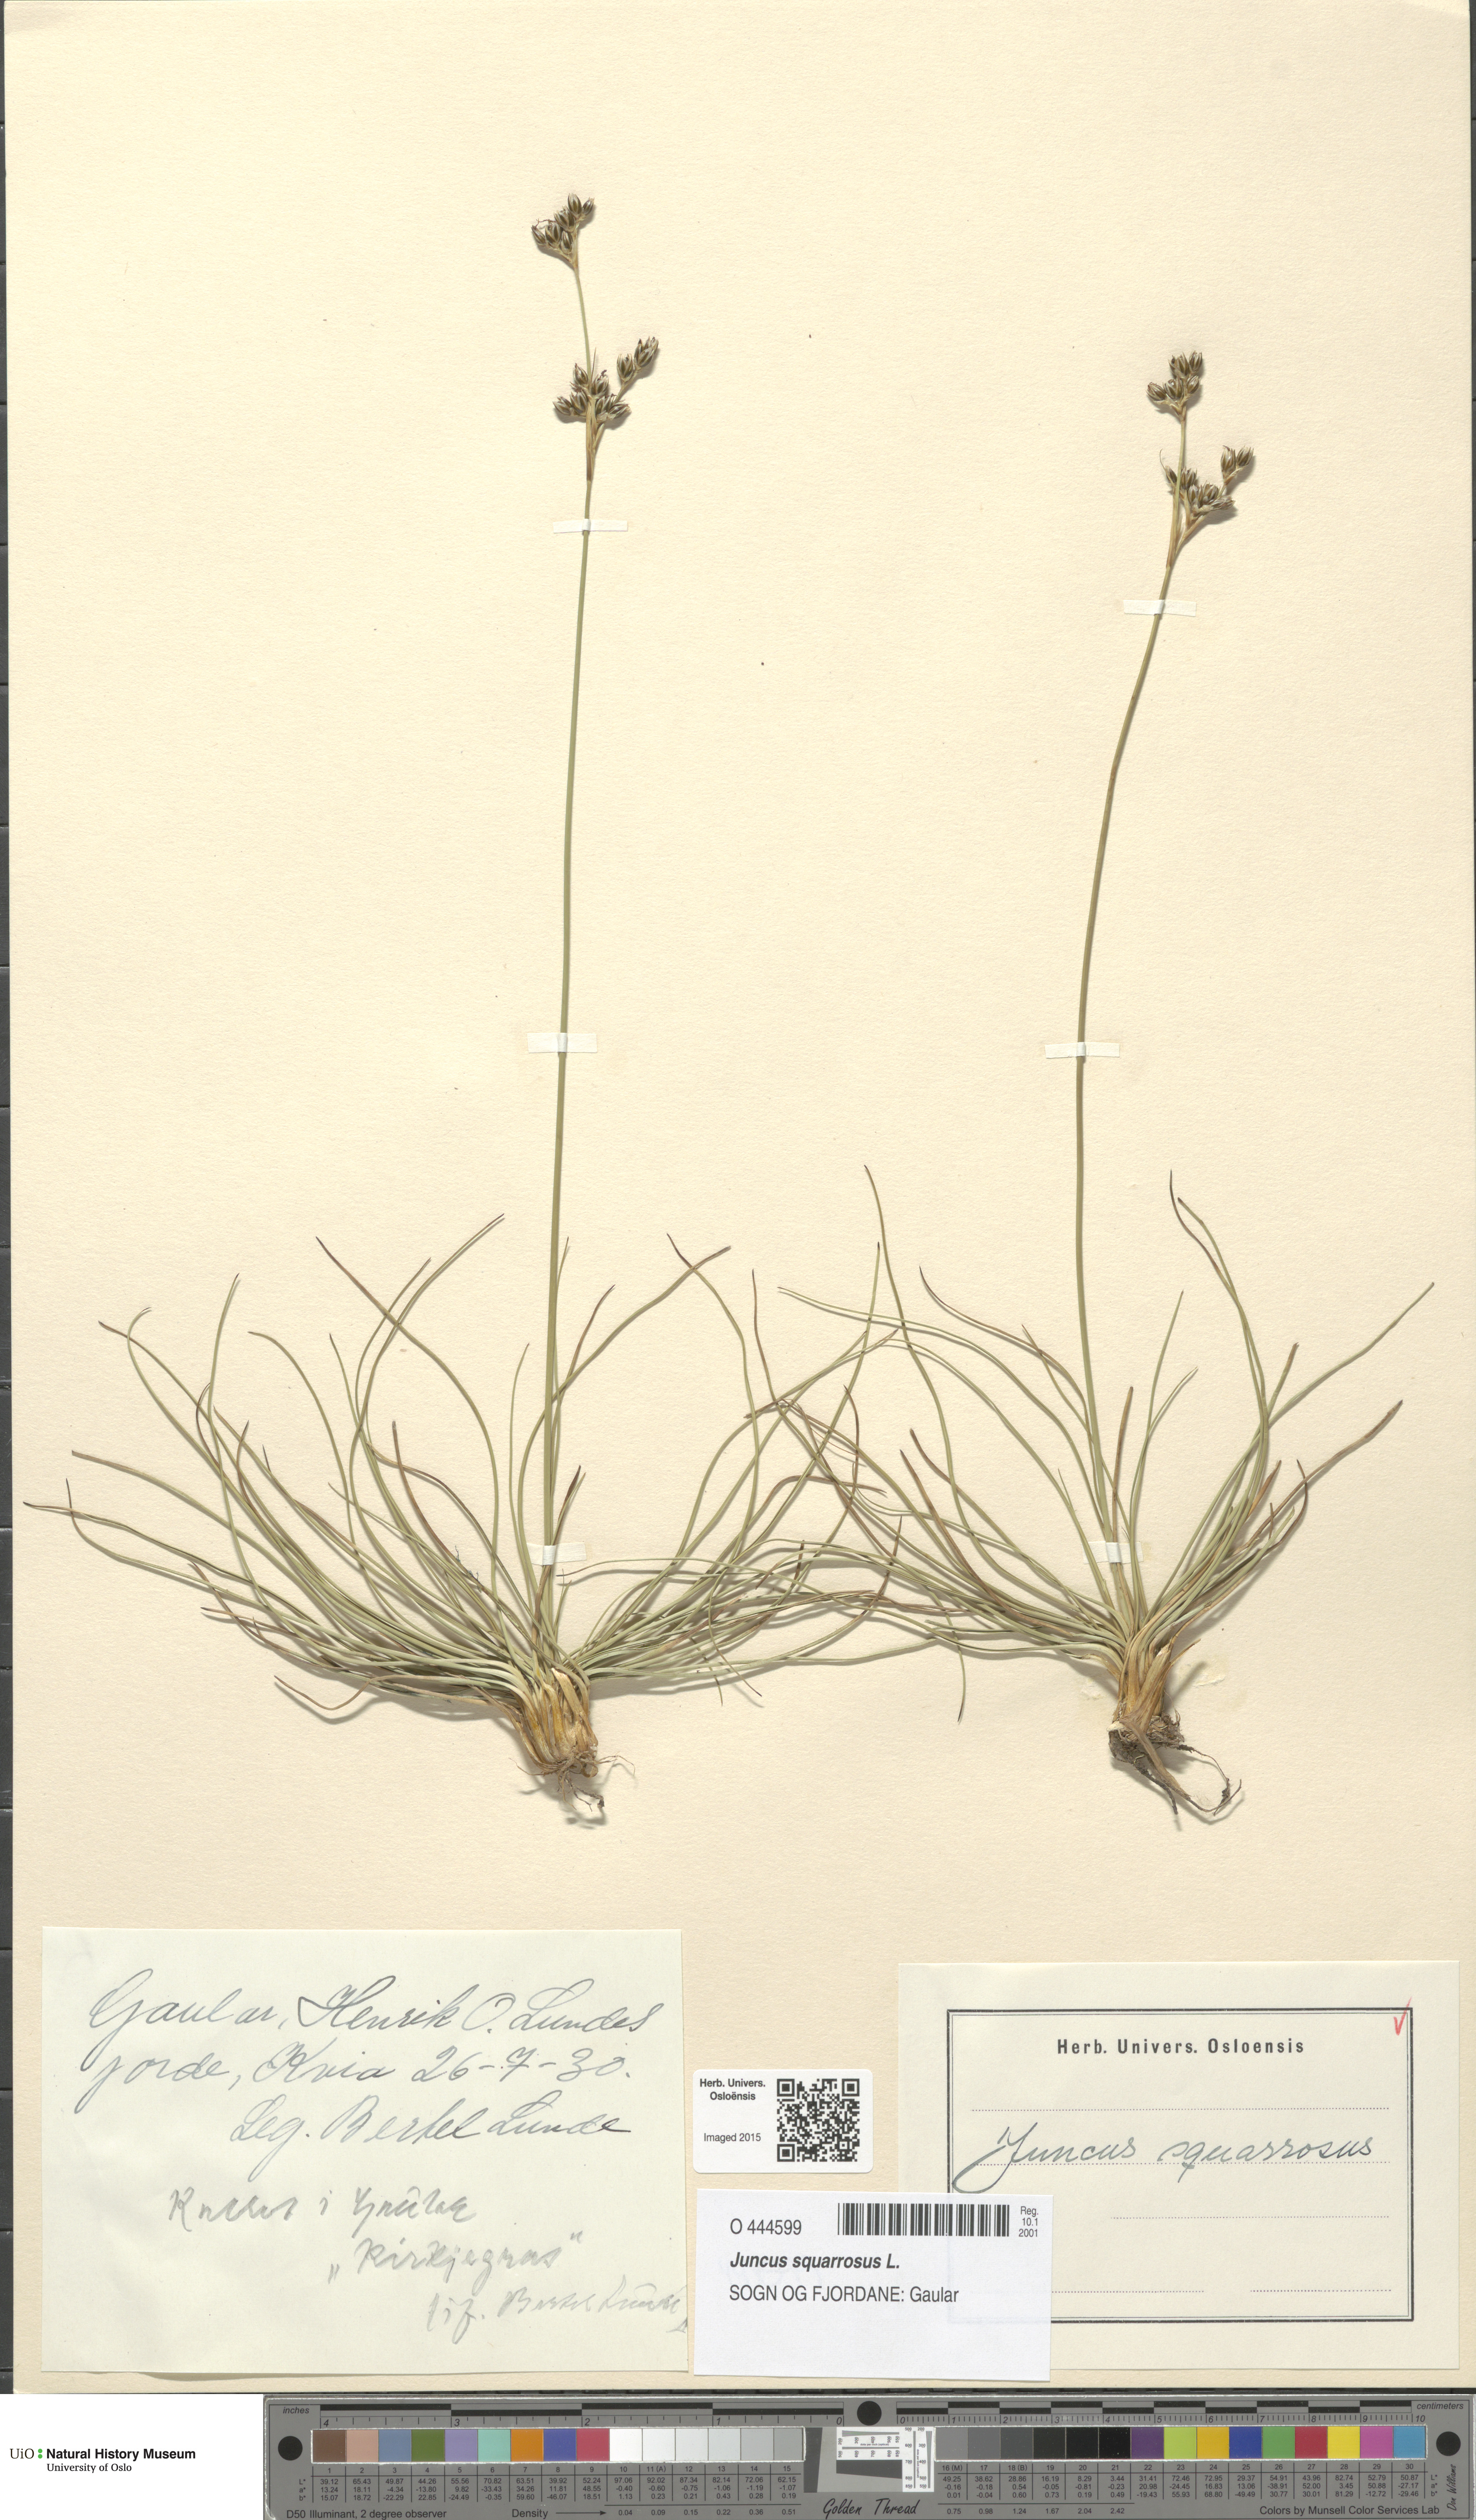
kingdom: Plantae
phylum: Tracheophyta
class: Liliopsida
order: Poales
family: Juncaceae
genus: Juncus
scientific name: Juncus squarrosus
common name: Heath rush
